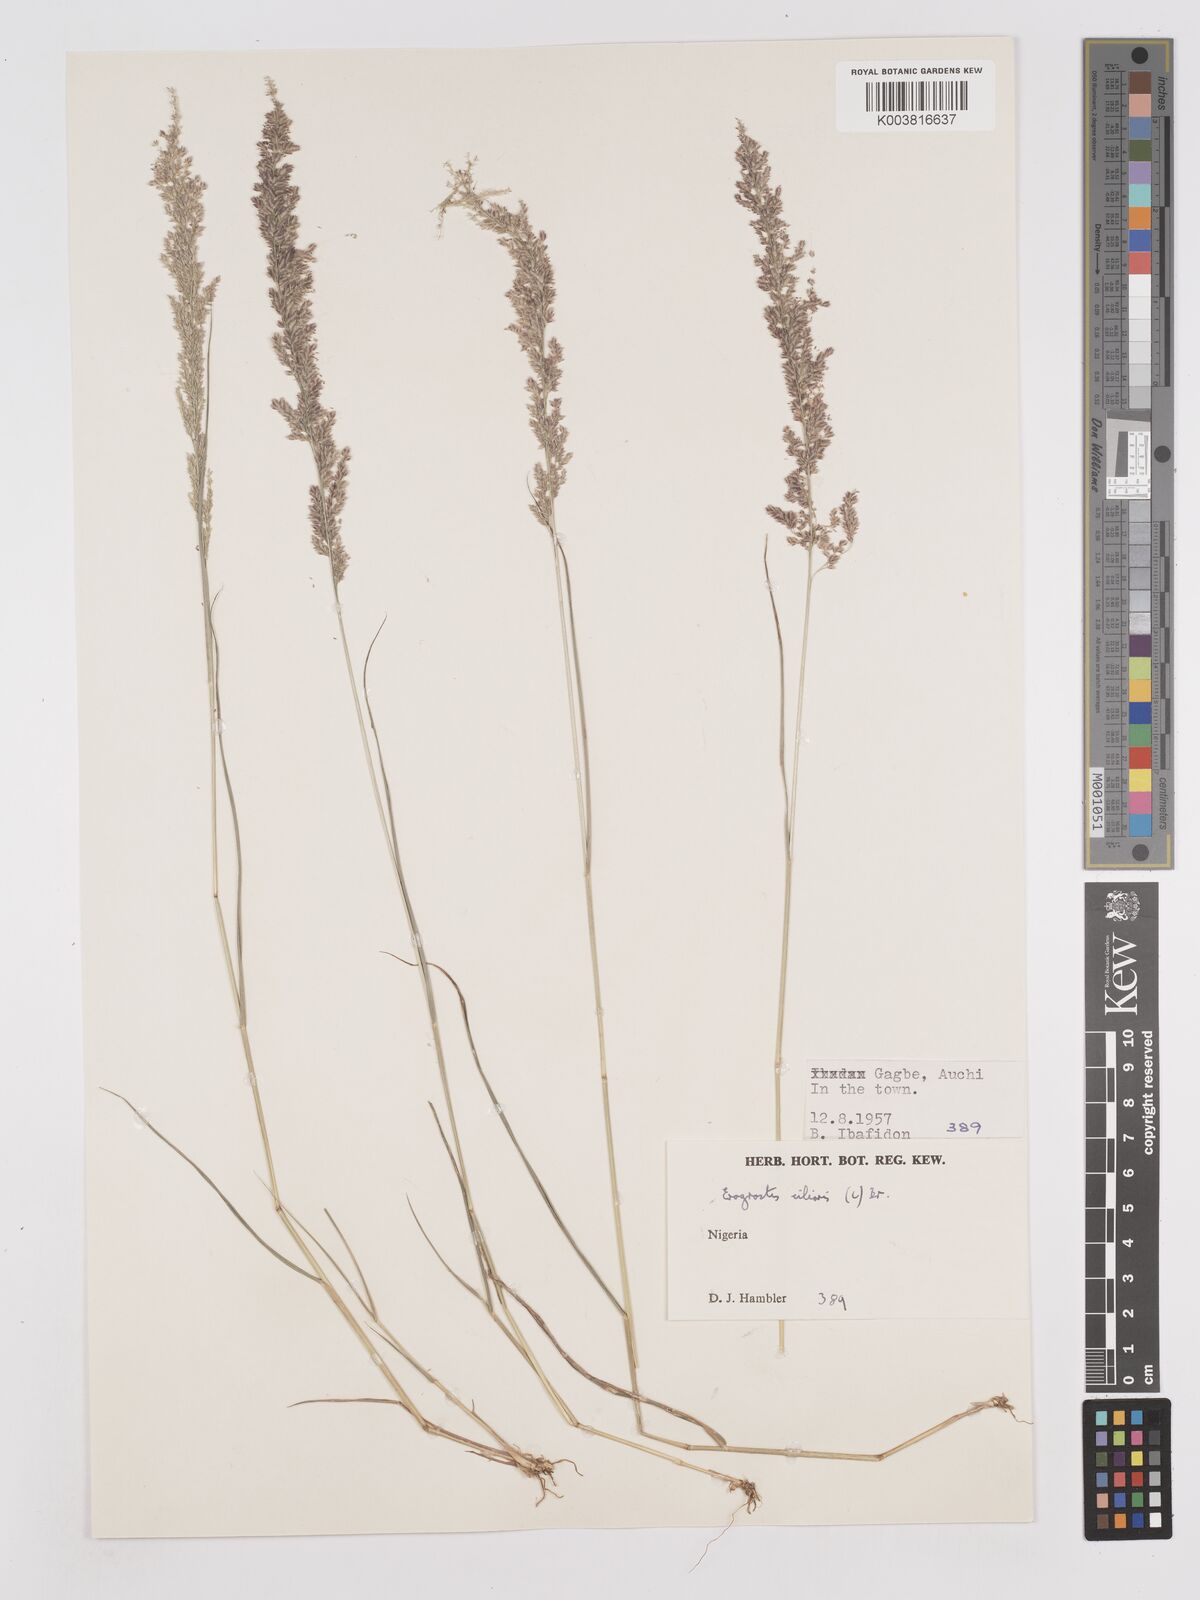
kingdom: Plantae
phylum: Tracheophyta
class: Liliopsida
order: Poales
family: Poaceae
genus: Eragrostis
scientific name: Eragrostis ciliaris
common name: Gophertail lovegrass
